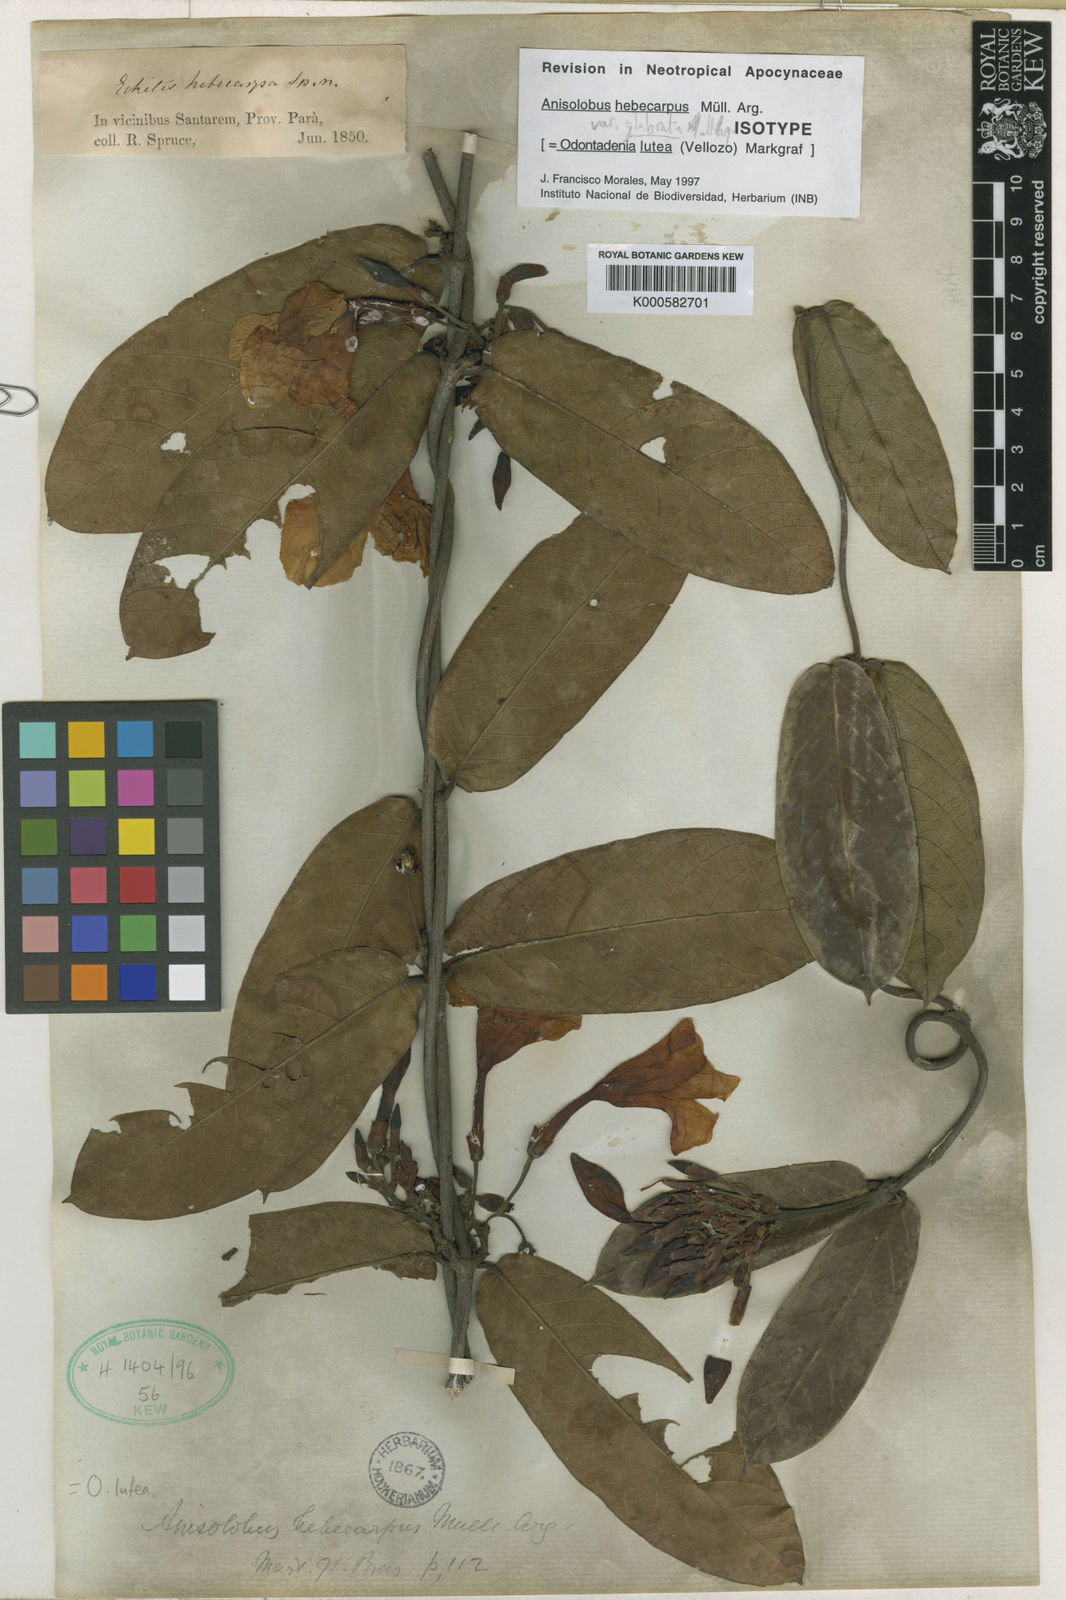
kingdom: Plantae
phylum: Tracheophyta
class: Magnoliopsida
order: Gentianales
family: Apocynaceae
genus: Odontadenia
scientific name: Odontadenia lutea
